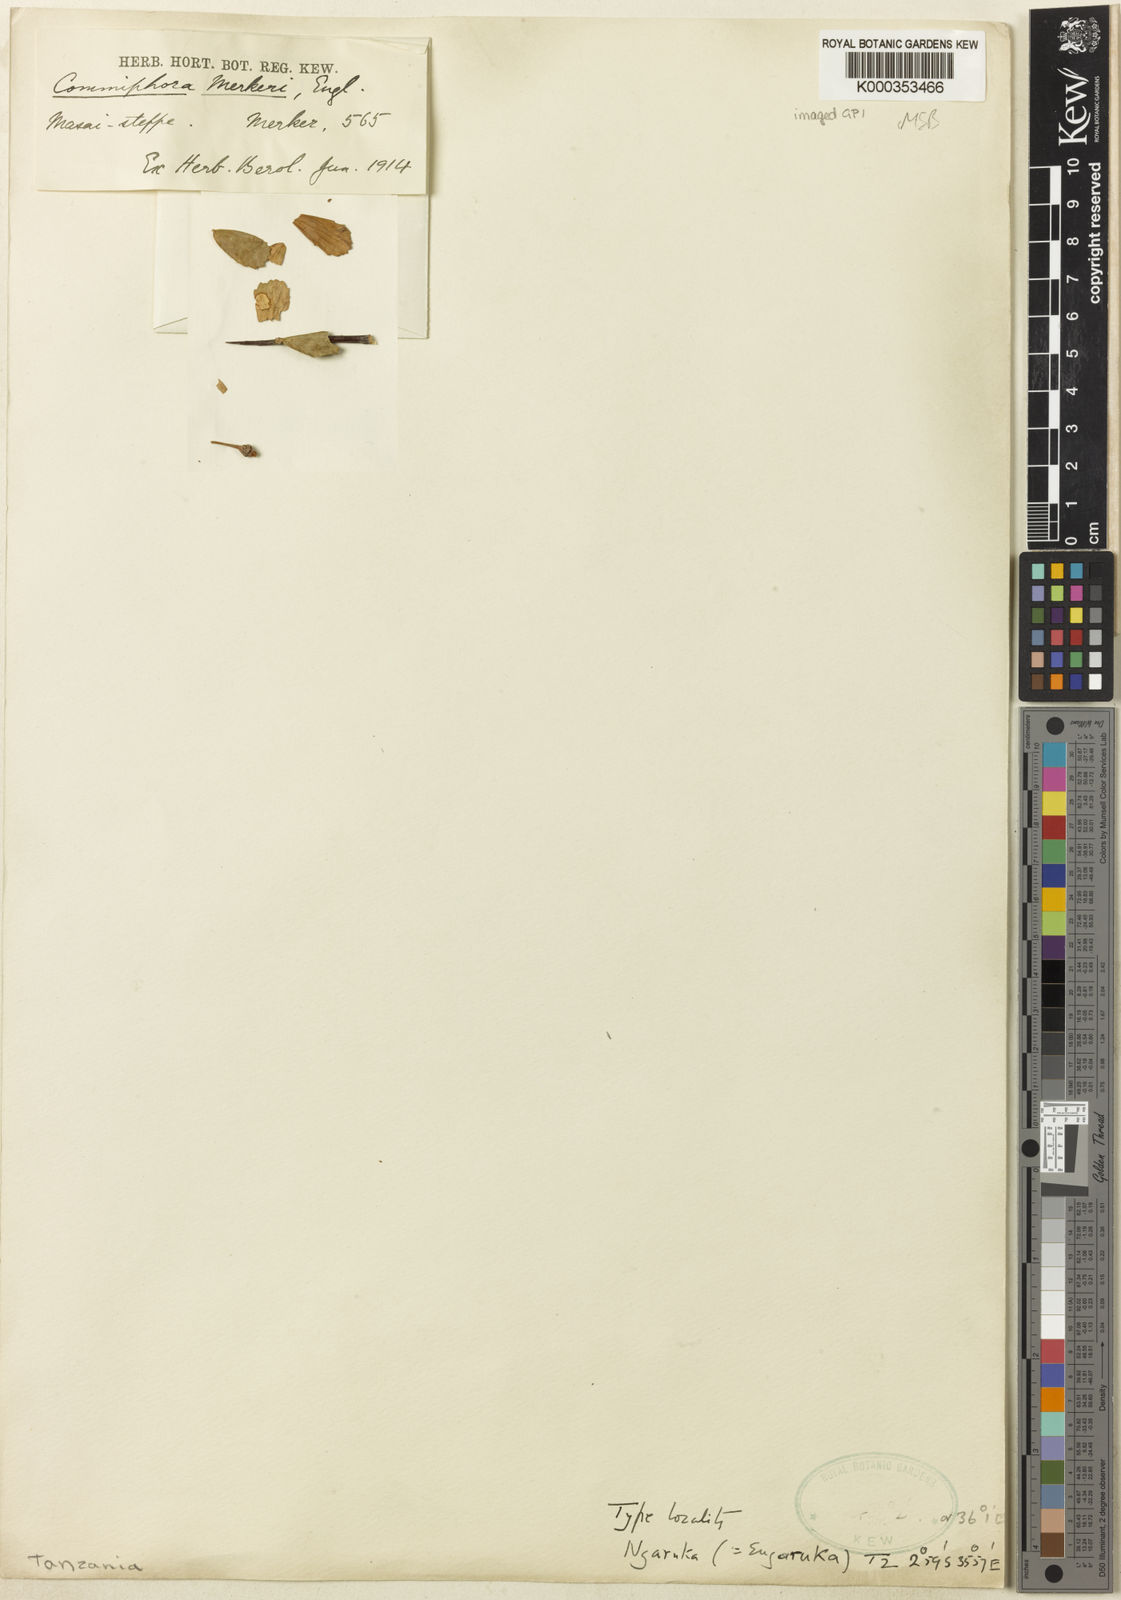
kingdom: Plantae
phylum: Tracheophyta
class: Magnoliopsida
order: Sapindales
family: Burseraceae
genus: Commiphora
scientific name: Commiphora viminea
